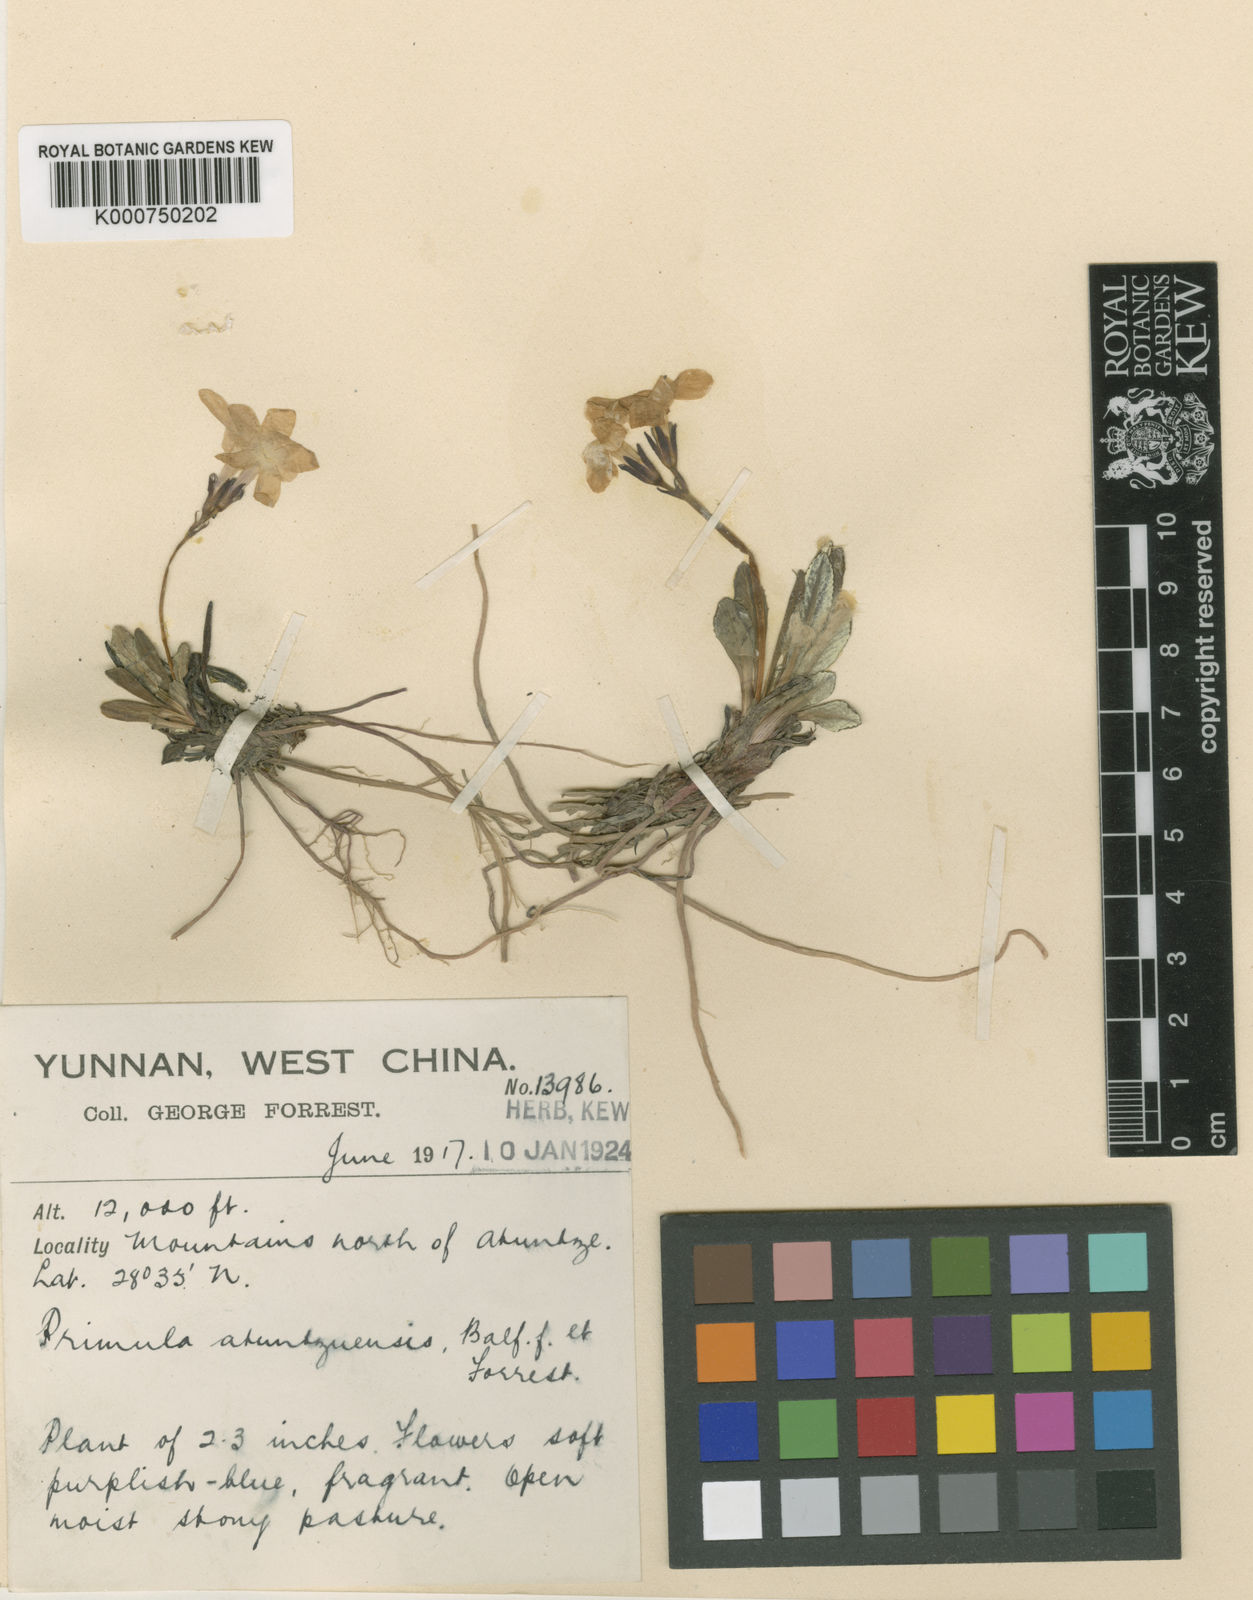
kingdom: Plantae
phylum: Tracheophyta
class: Magnoliopsida
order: Ericales
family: Primulaceae
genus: Primula
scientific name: Primula minor
